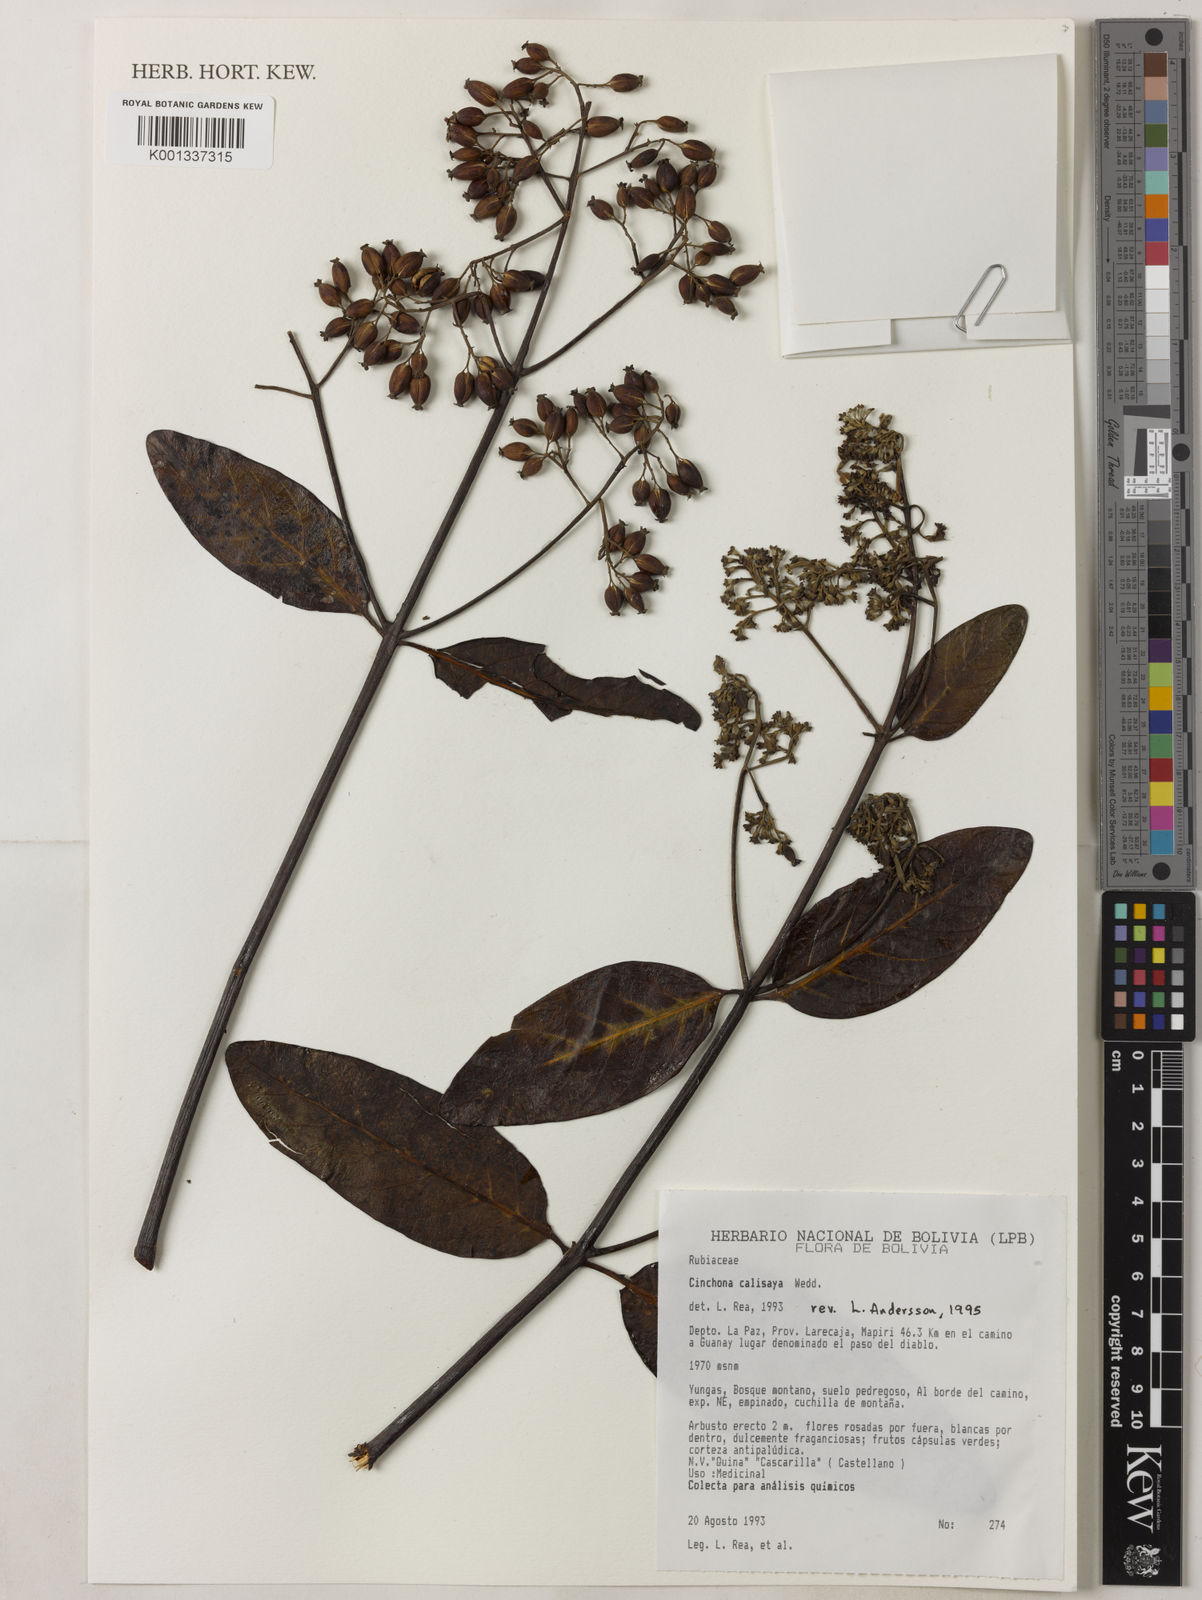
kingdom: Plantae
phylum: Tracheophyta
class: Magnoliopsida
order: Gentianales
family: Rubiaceae
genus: Cinchona
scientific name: Cinchona calisaya
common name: Ledgerbark
